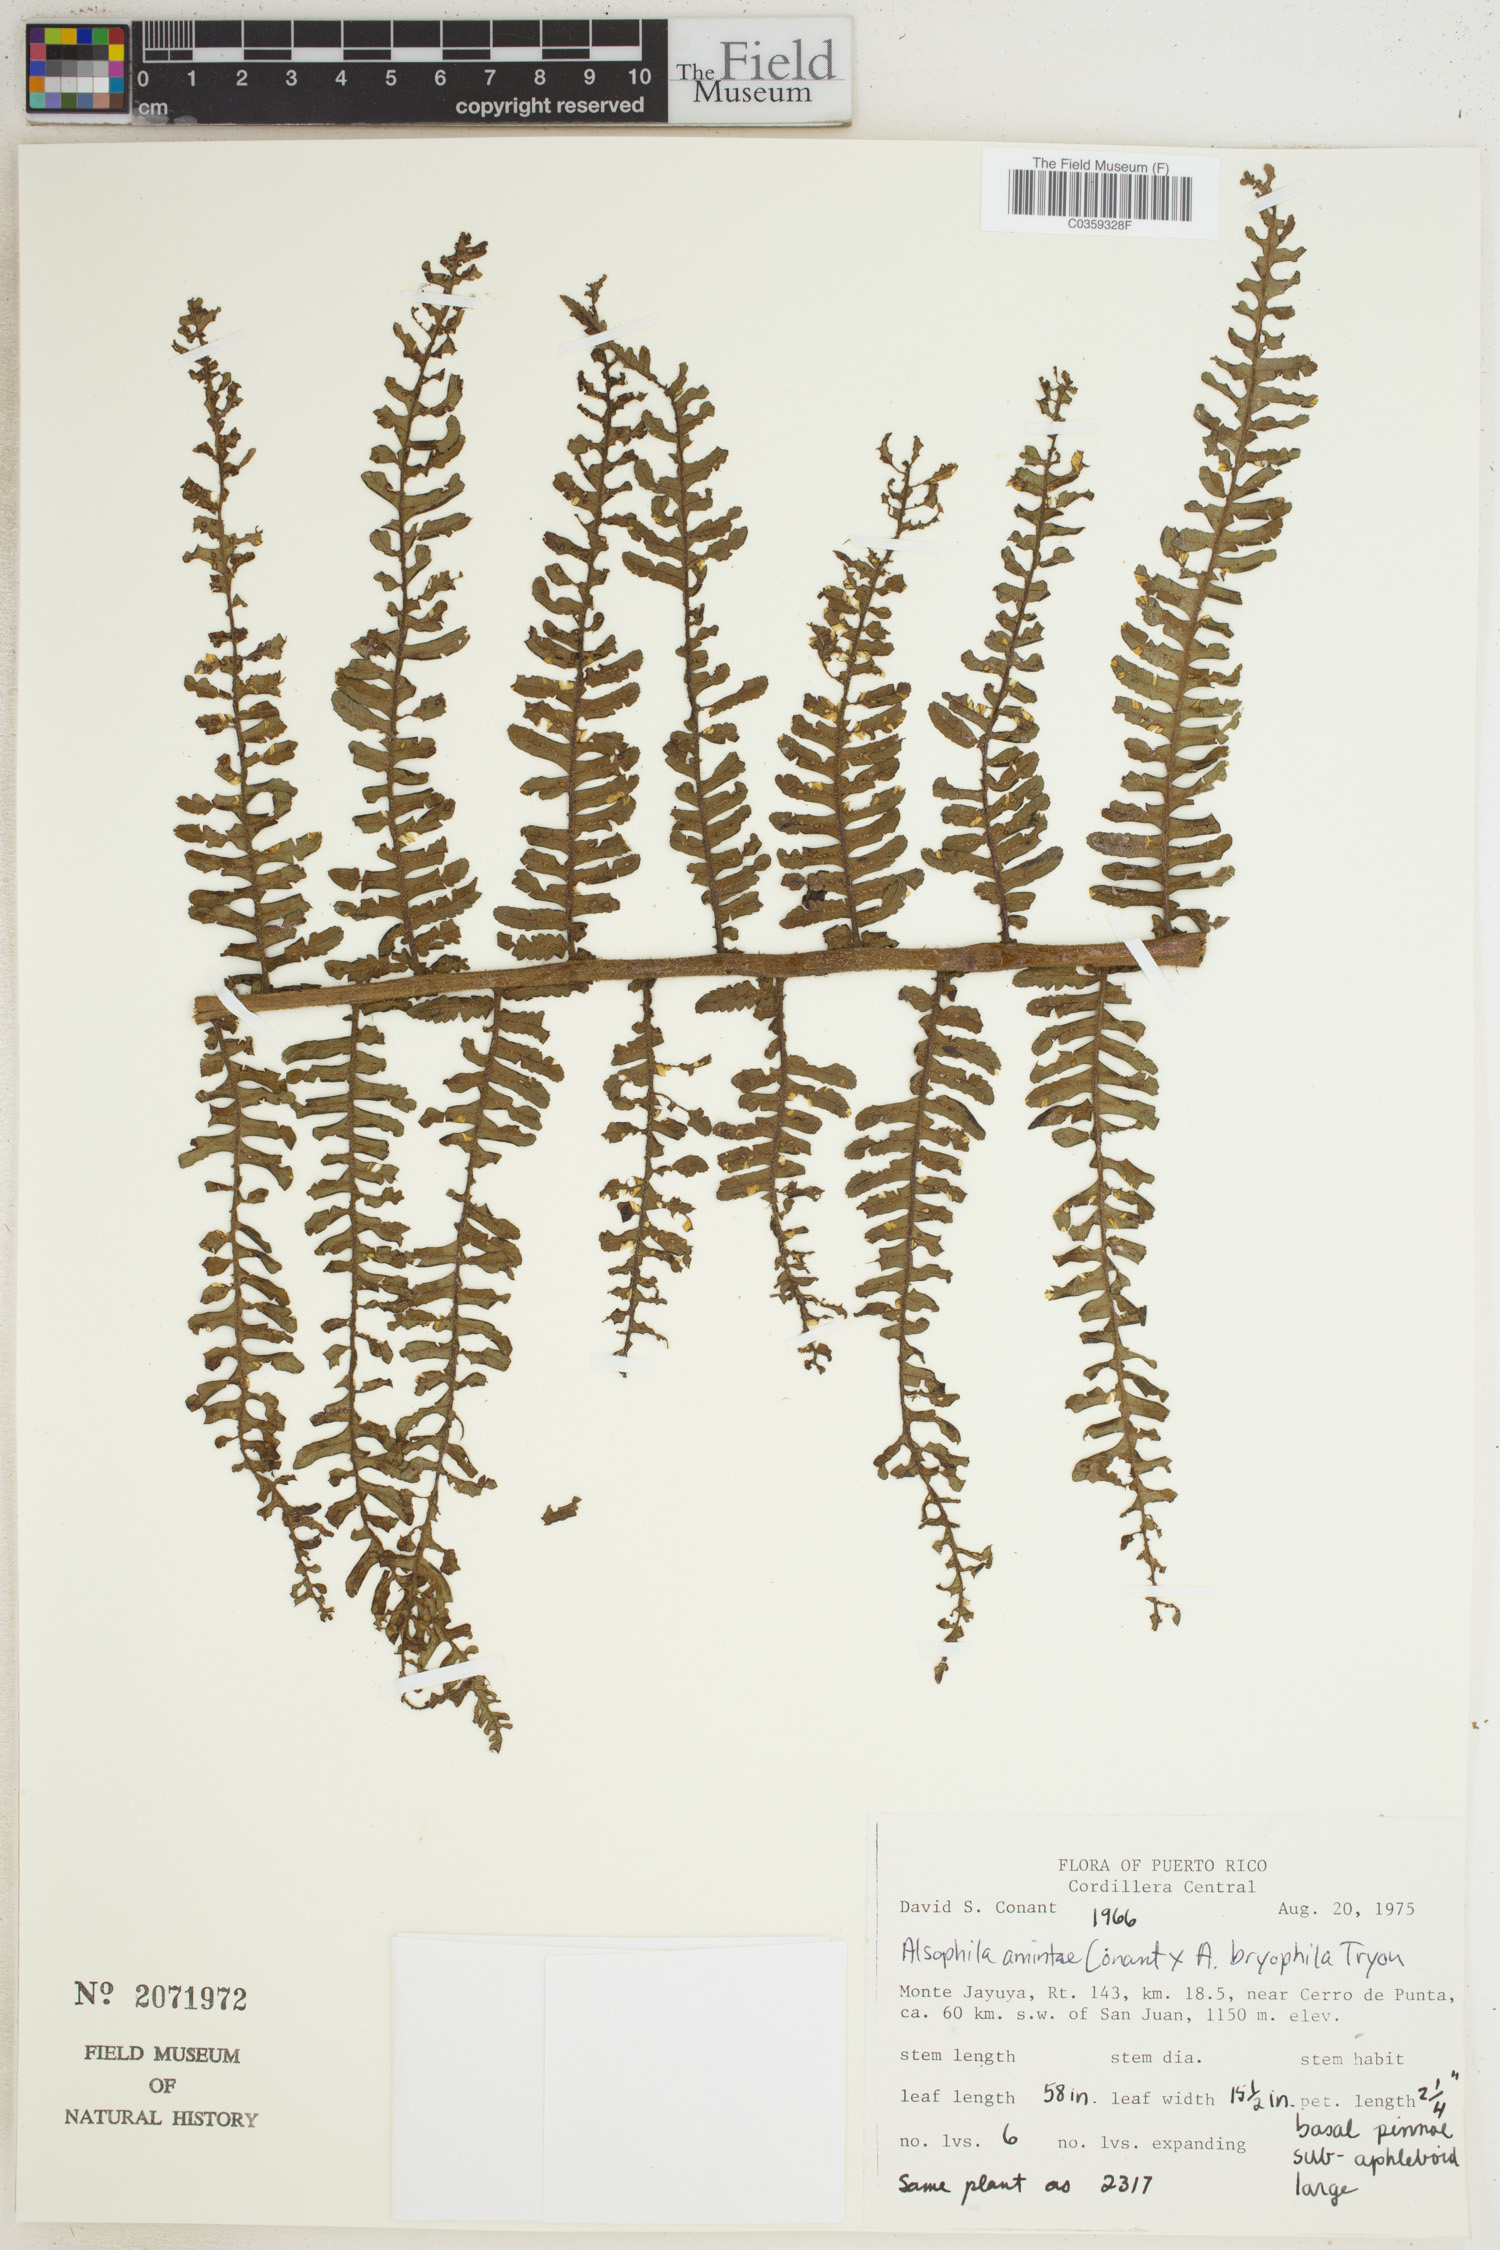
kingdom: Plantae
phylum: Tracheophyta
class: Polypodiopsida
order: Cyatheales
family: Cyatheaceae
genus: Alsophila
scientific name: Alsophila
